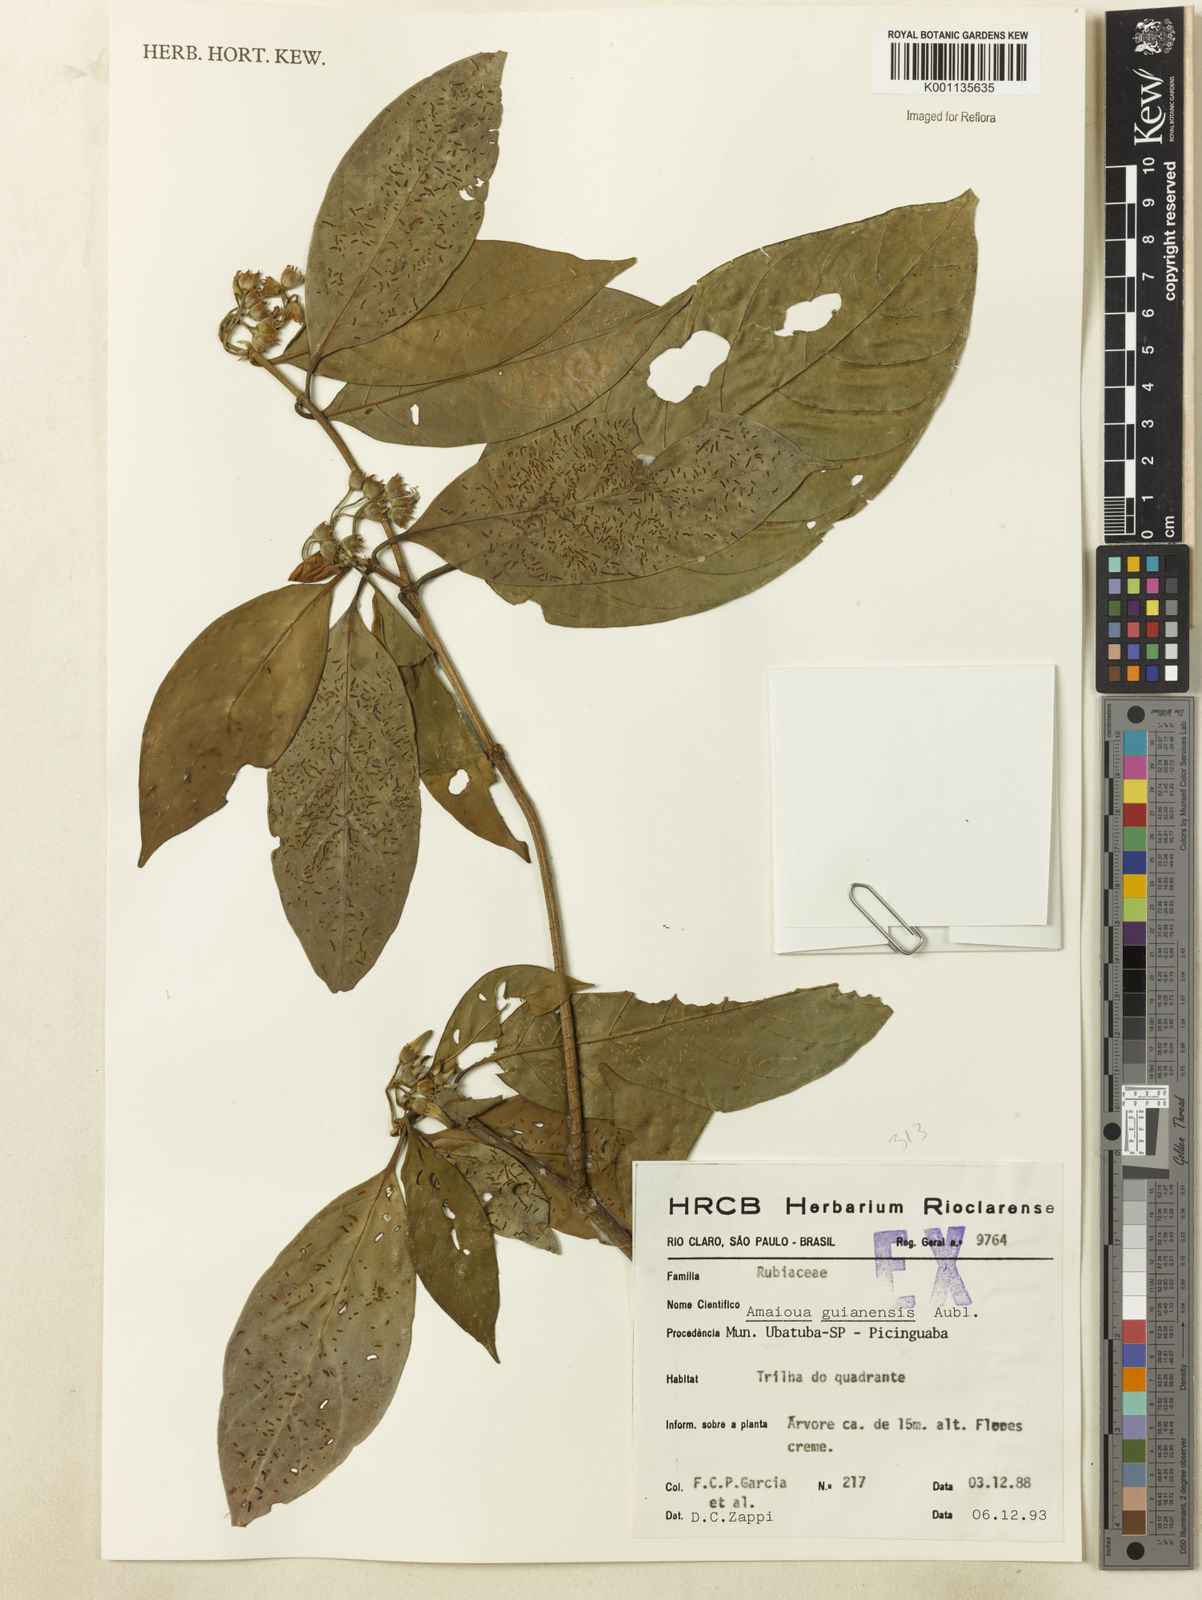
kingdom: Plantae
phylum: Tracheophyta
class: Magnoliopsida
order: Gentianales
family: Rubiaceae
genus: Amaioua
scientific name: Amaioua intermedia
